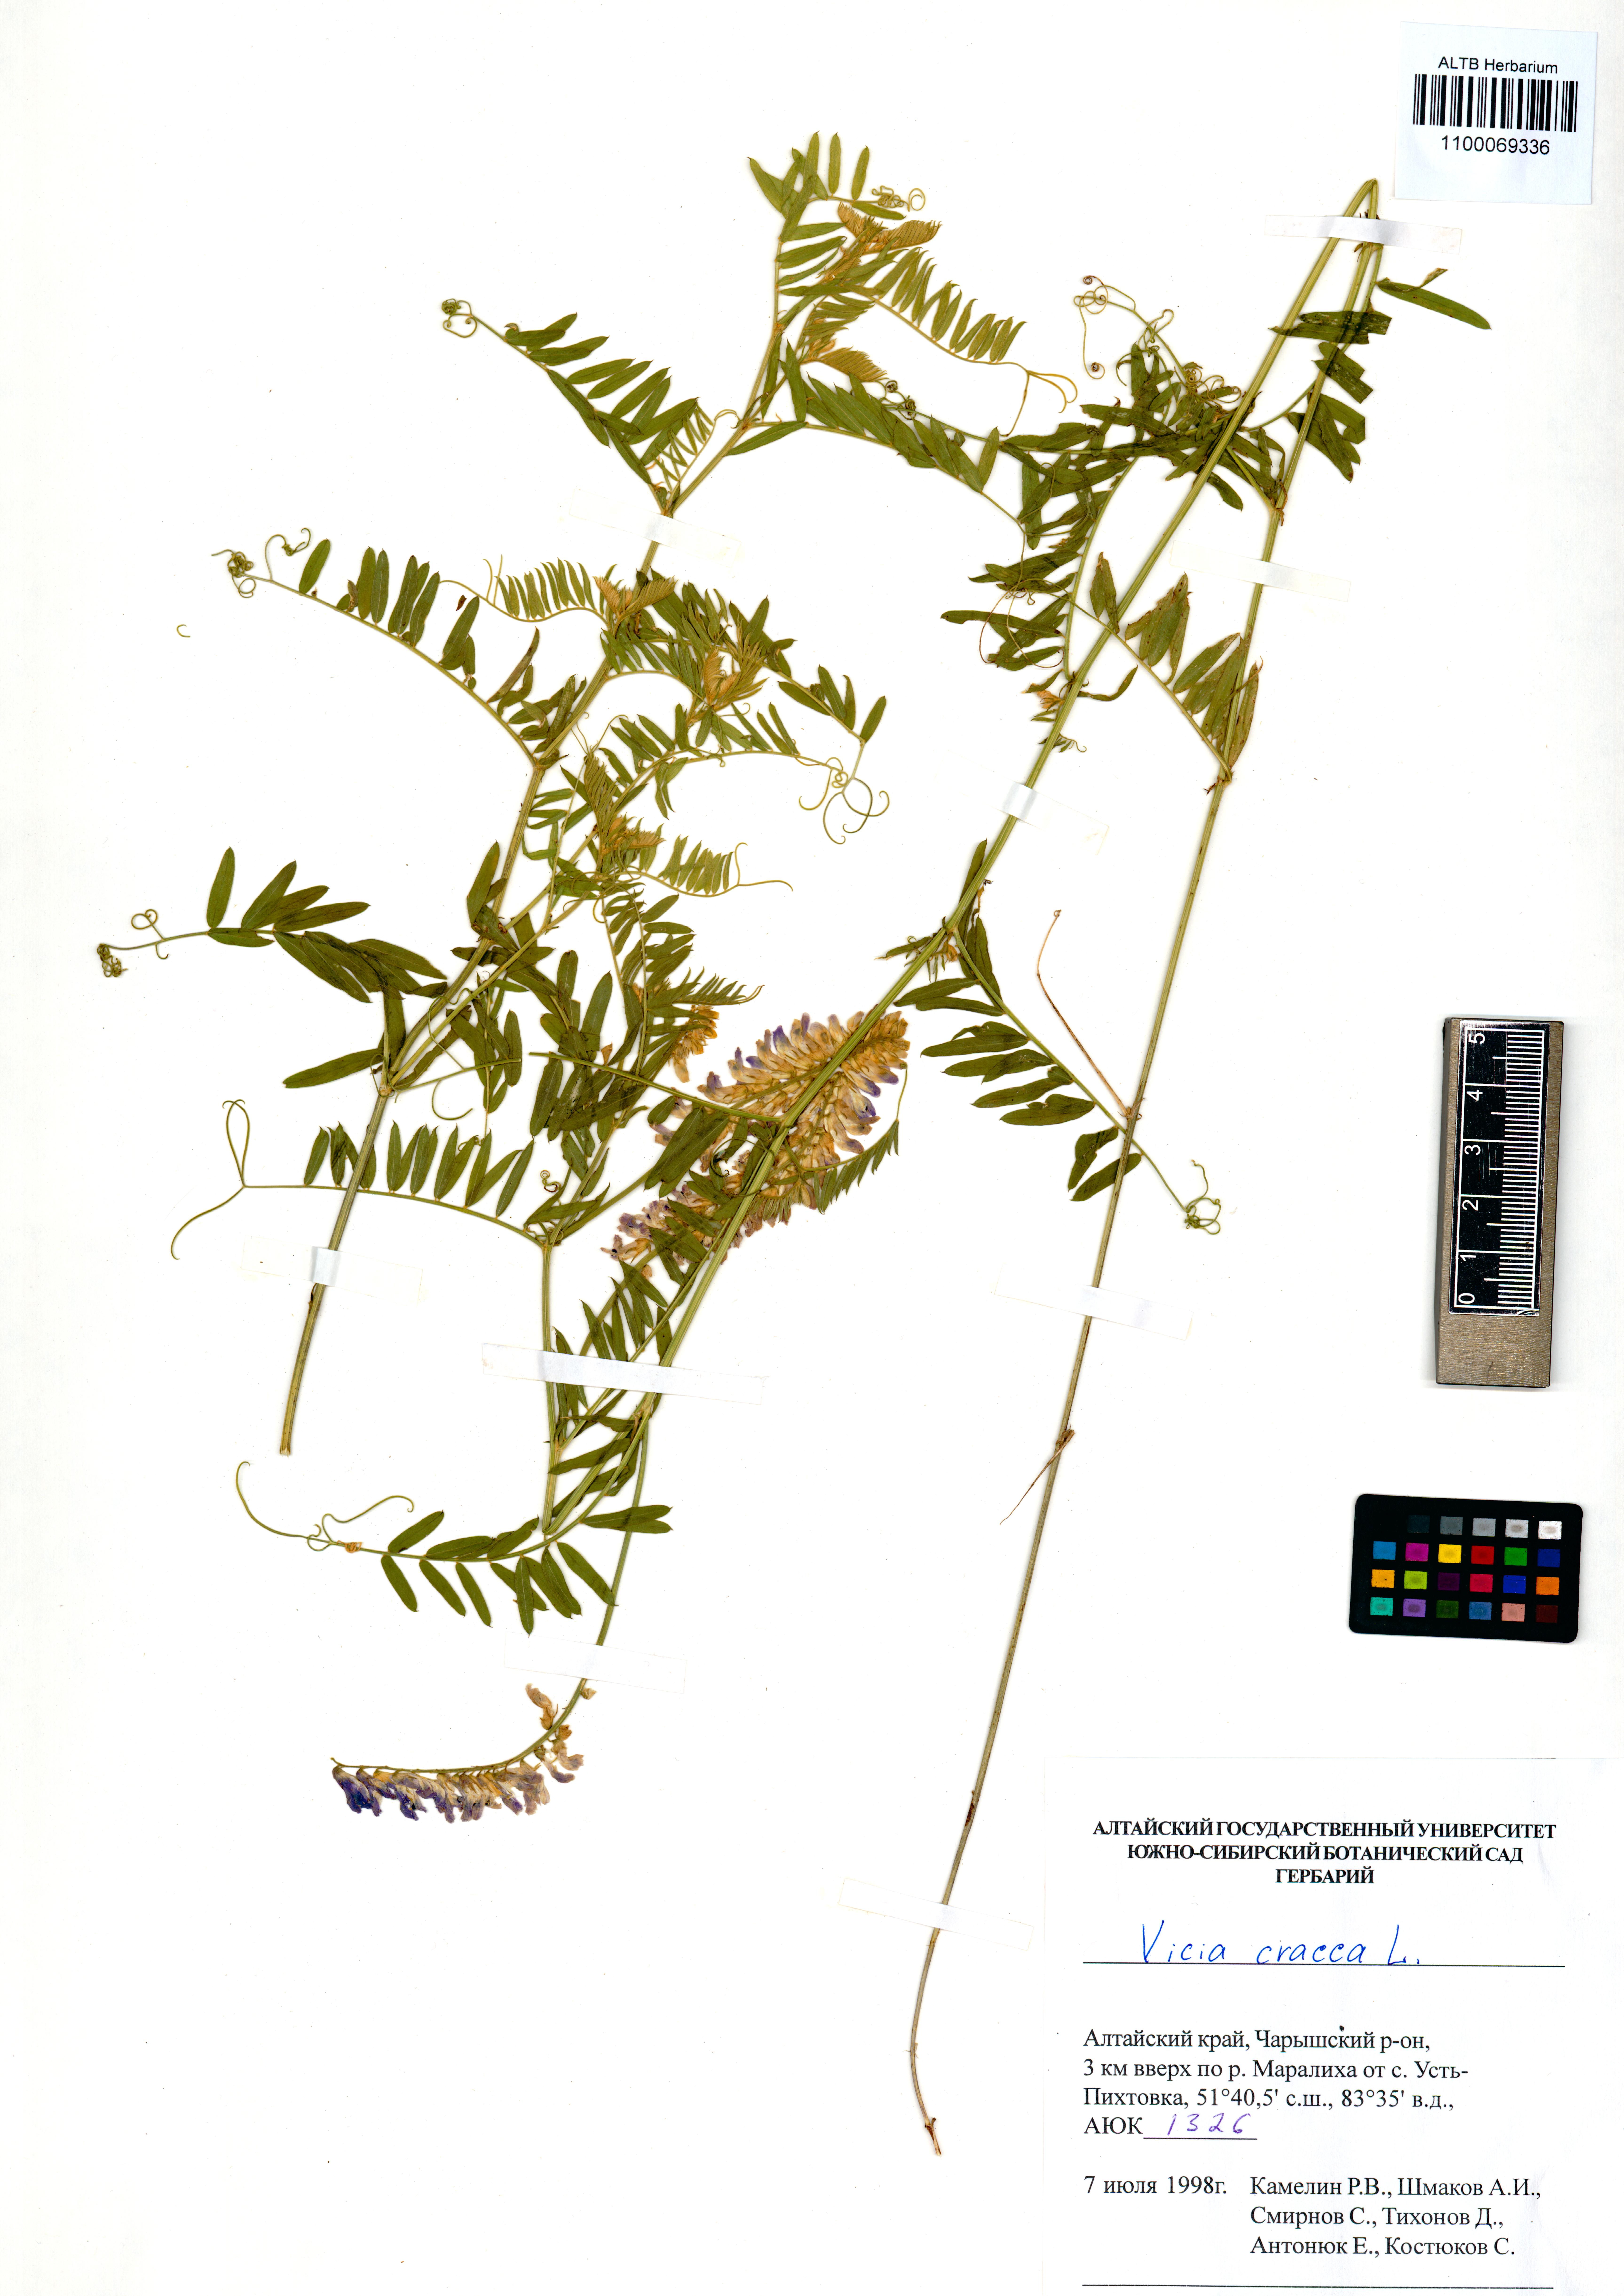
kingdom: Plantae
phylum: Tracheophyta
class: Magnoliopsida
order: Fabales
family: Fabaceae
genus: Vicia
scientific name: Vicia cracca
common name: Bird vetch
